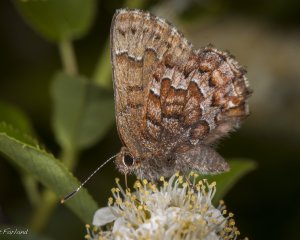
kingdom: Animalia
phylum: Arthropoda
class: Insecta
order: Lepidoptera
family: Lycaenidae
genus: Incisalia
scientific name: Incisalia niphon
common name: Eastern Pine Elfin
